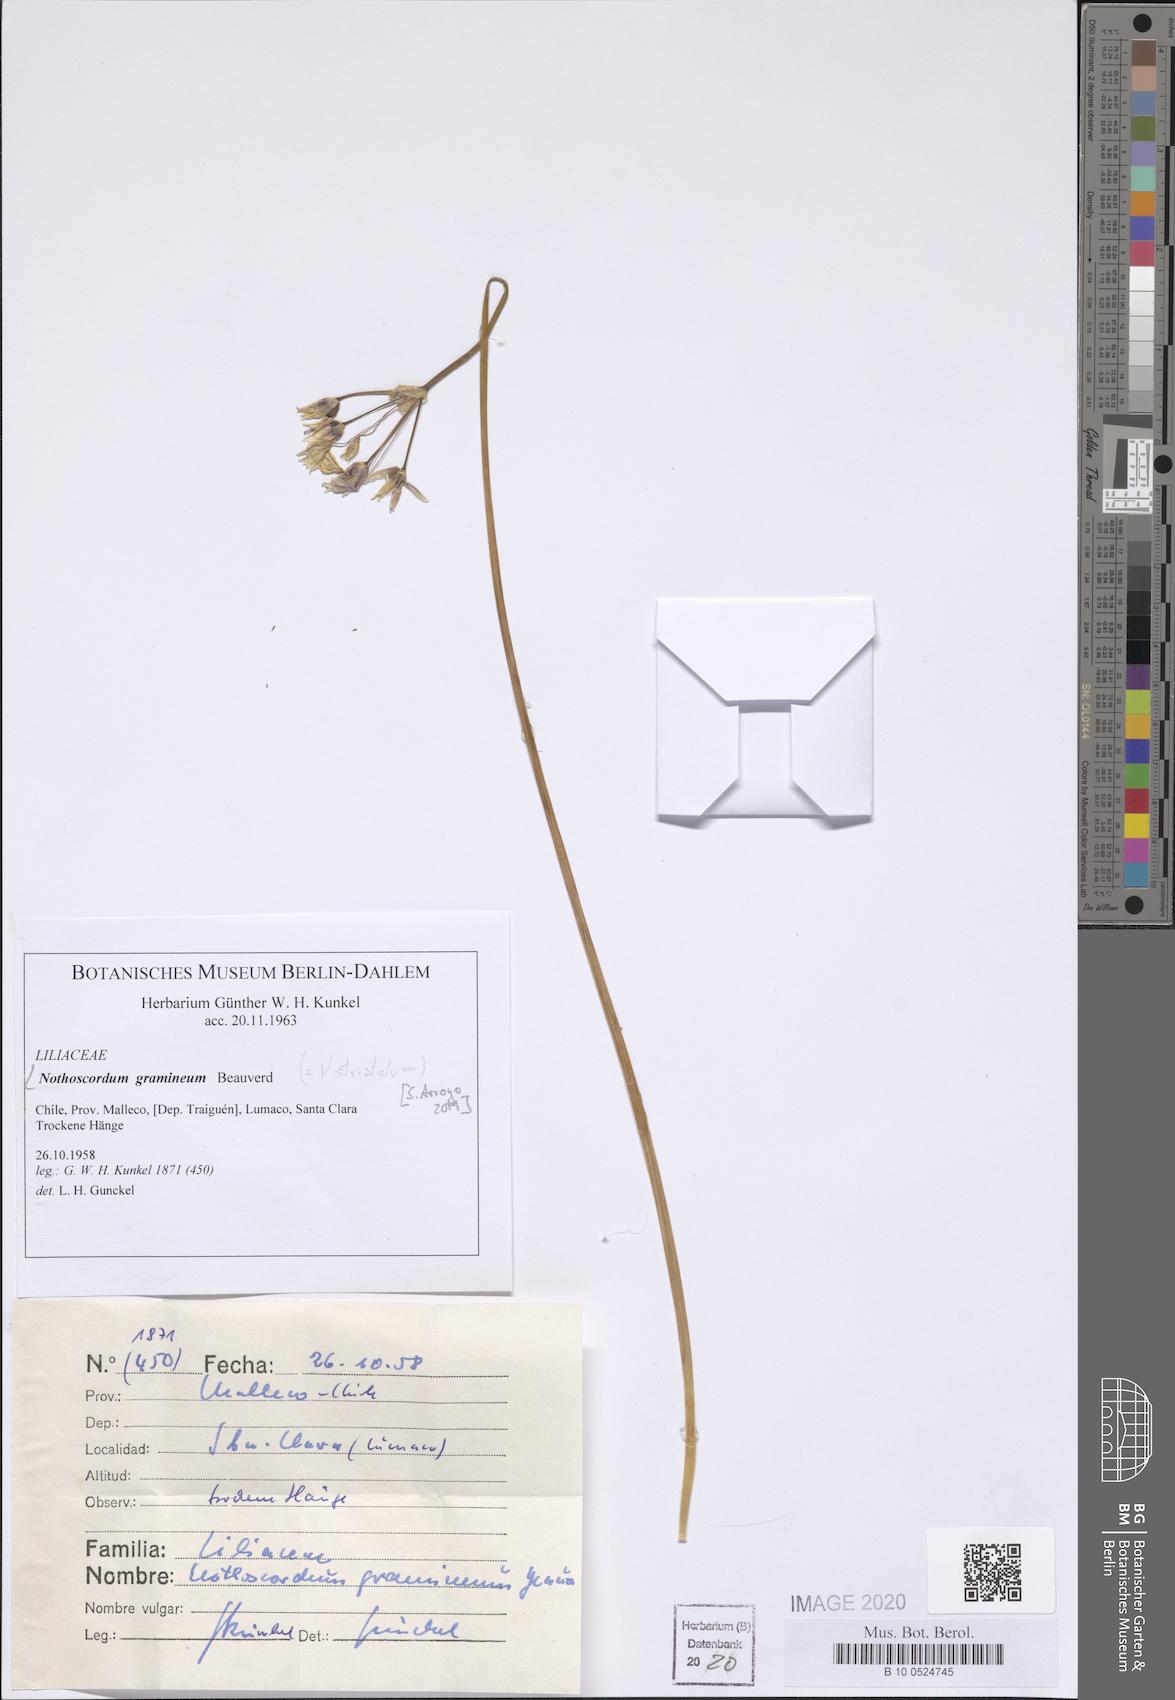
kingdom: Plantae
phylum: Tracheophyta
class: Liliopsida
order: Asparagales
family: Amaryllidaceae
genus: Nothoscordum
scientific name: Nothoscordum bivalve
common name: Crow-poison
